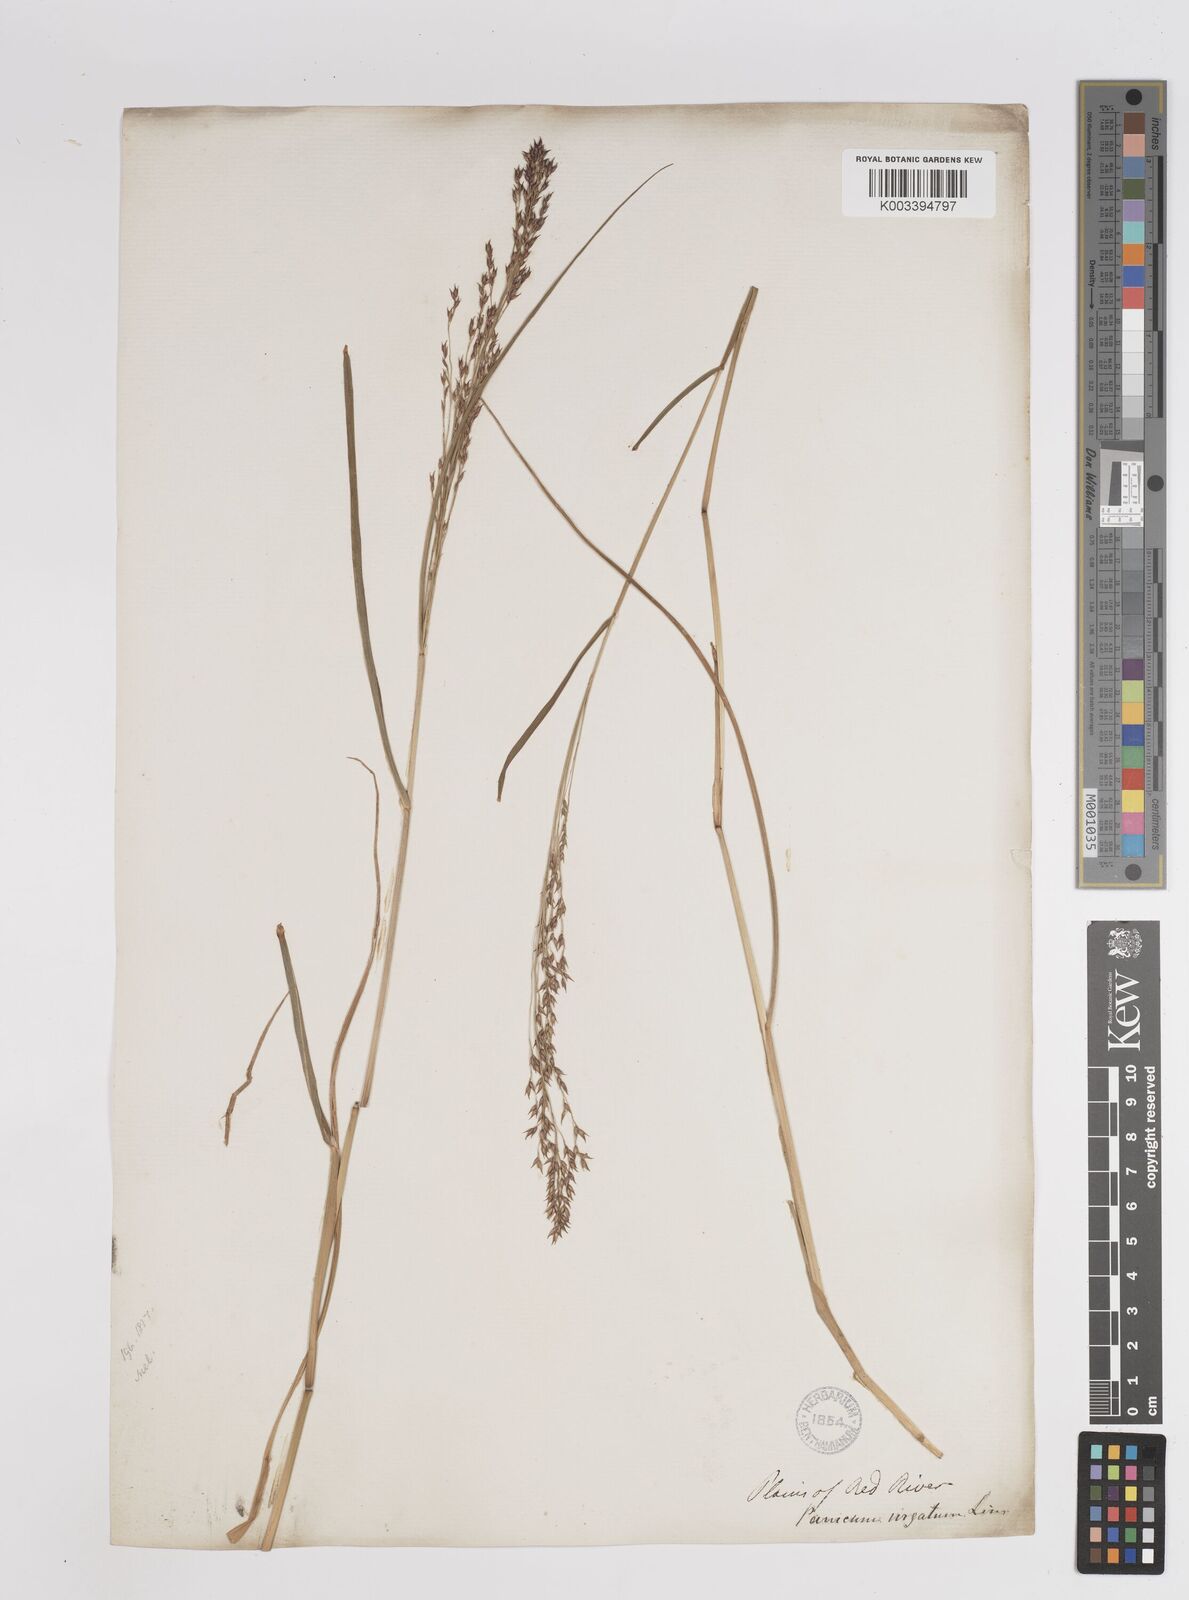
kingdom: Plantae
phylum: Tracheophyta
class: Liliopsida
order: Poales
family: Poaceae
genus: Panicum
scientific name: Panicum virgatum
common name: Switchgrass
